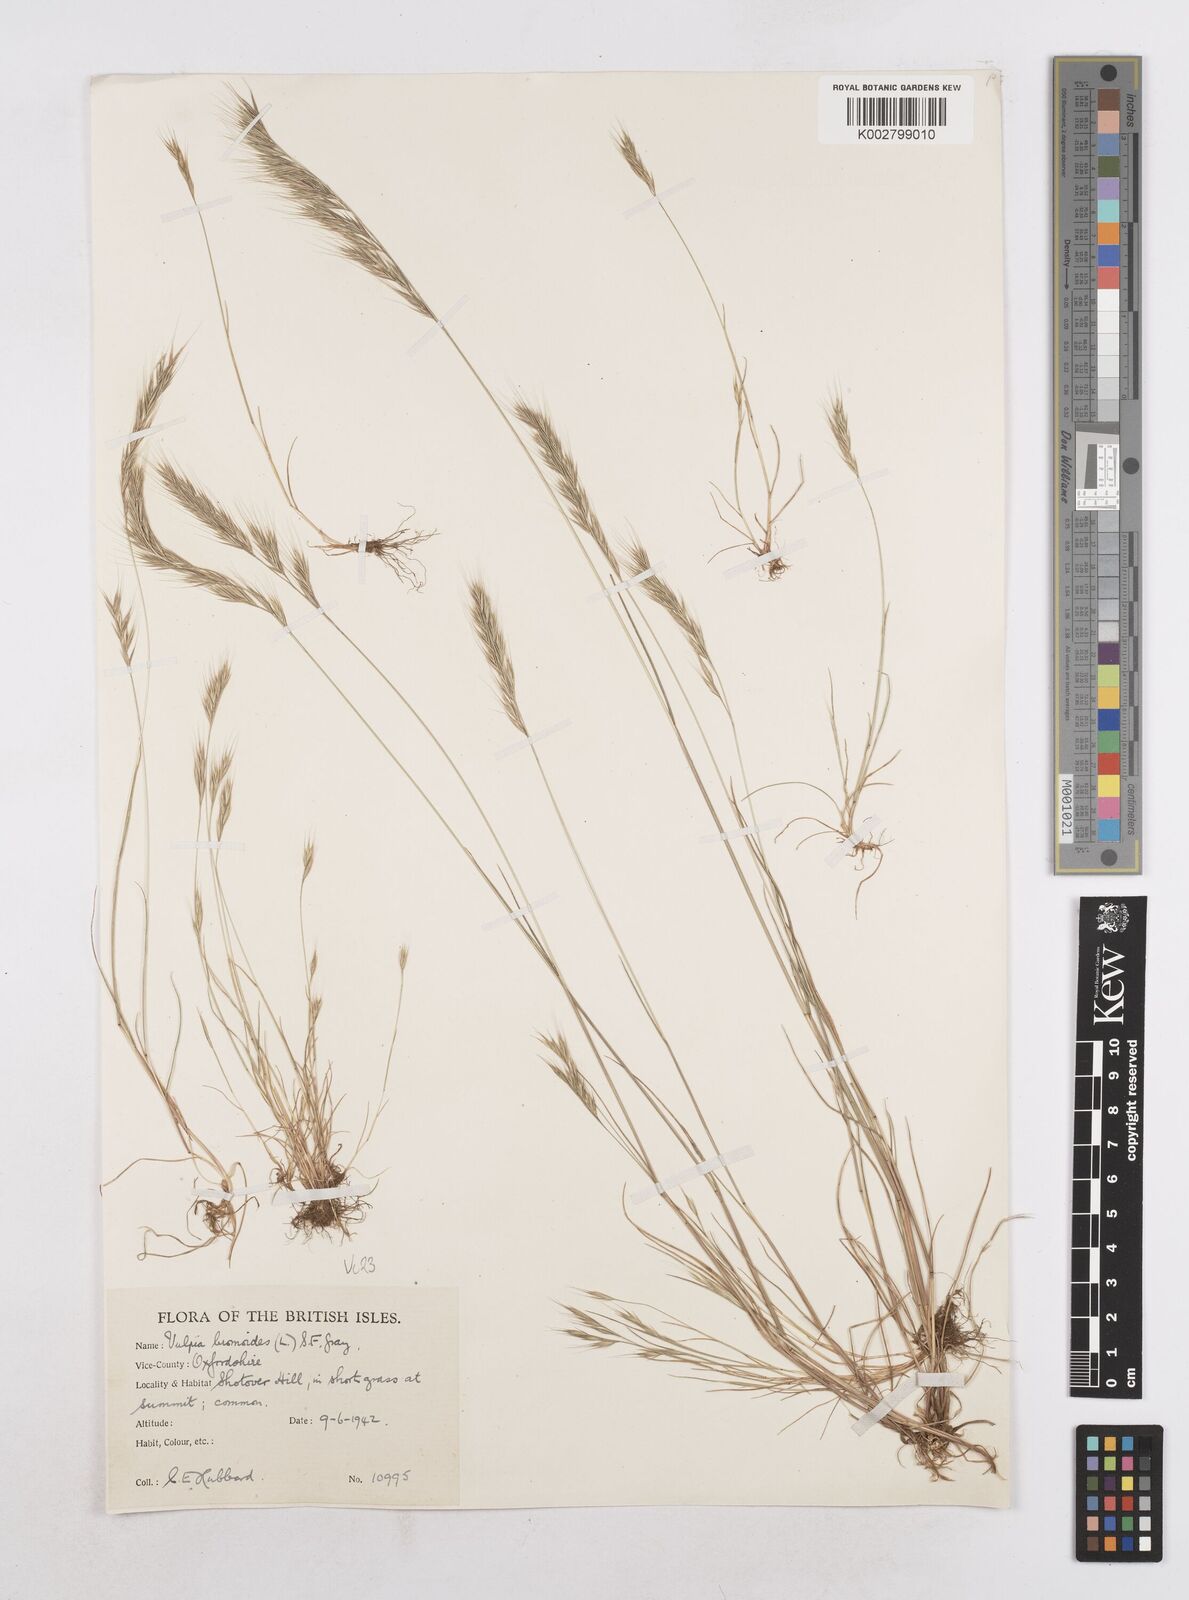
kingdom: Plantae
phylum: Tracheophyta
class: Liliopsida
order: Poales
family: Poaceae
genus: Festuca
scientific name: Festuca bromoides
